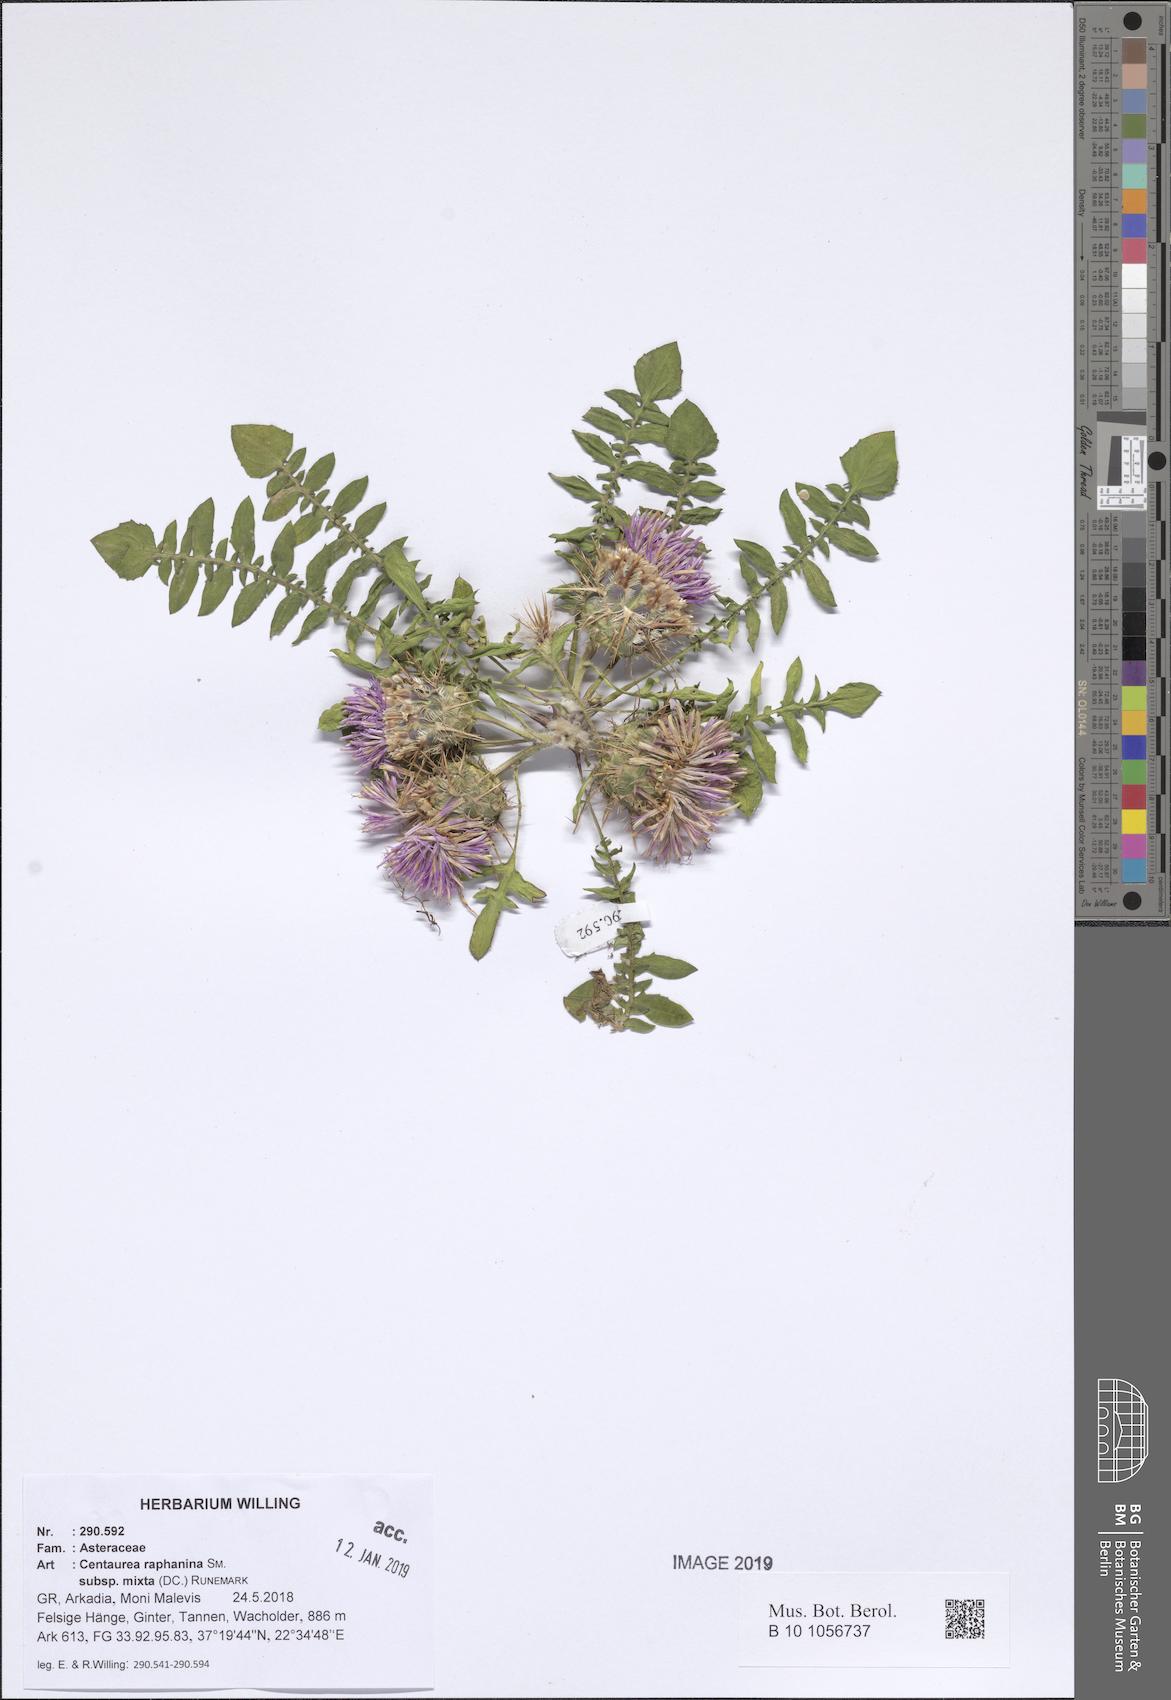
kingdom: Plantae
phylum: Tracheophyta
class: Magnoliopsida
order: Asterales
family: Asteraceae
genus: Centaurea
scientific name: Centaurea raphanina
